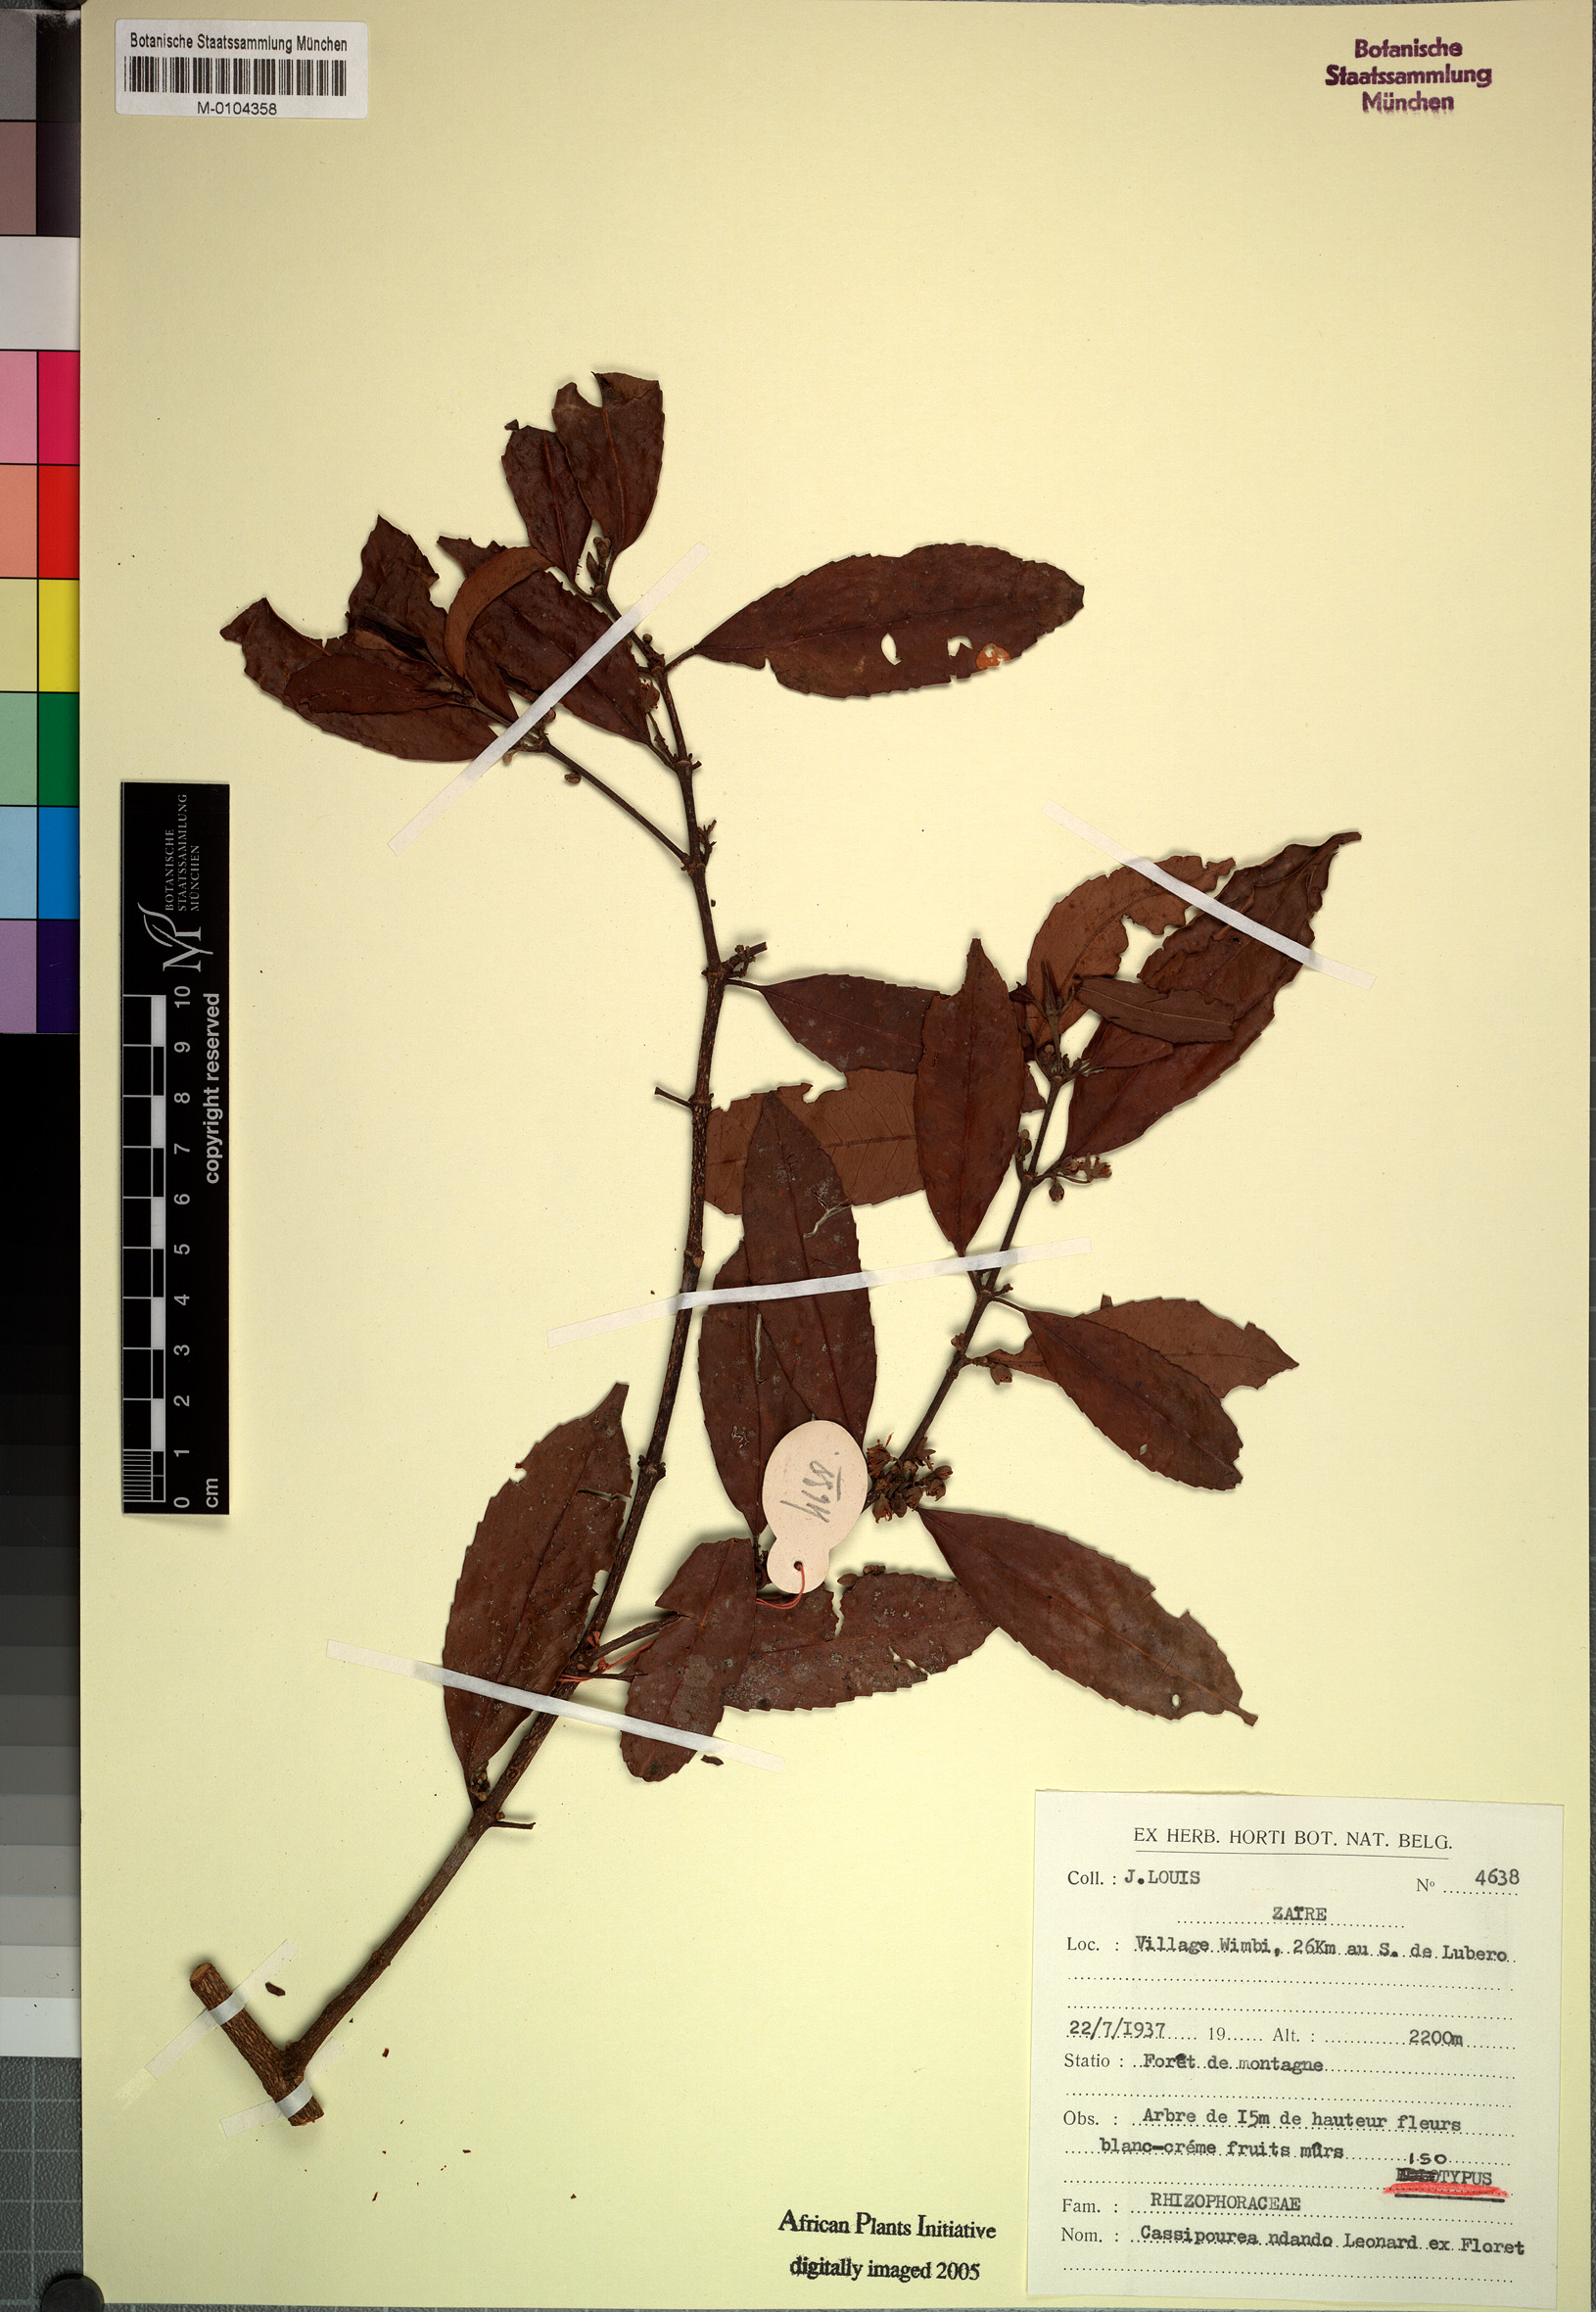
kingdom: Plantae
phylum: Tracheophyta
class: Magnoliopsida
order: Malpighiales
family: Rhizophoraceae
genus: Cassipourea
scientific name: Cassipourea ndando
